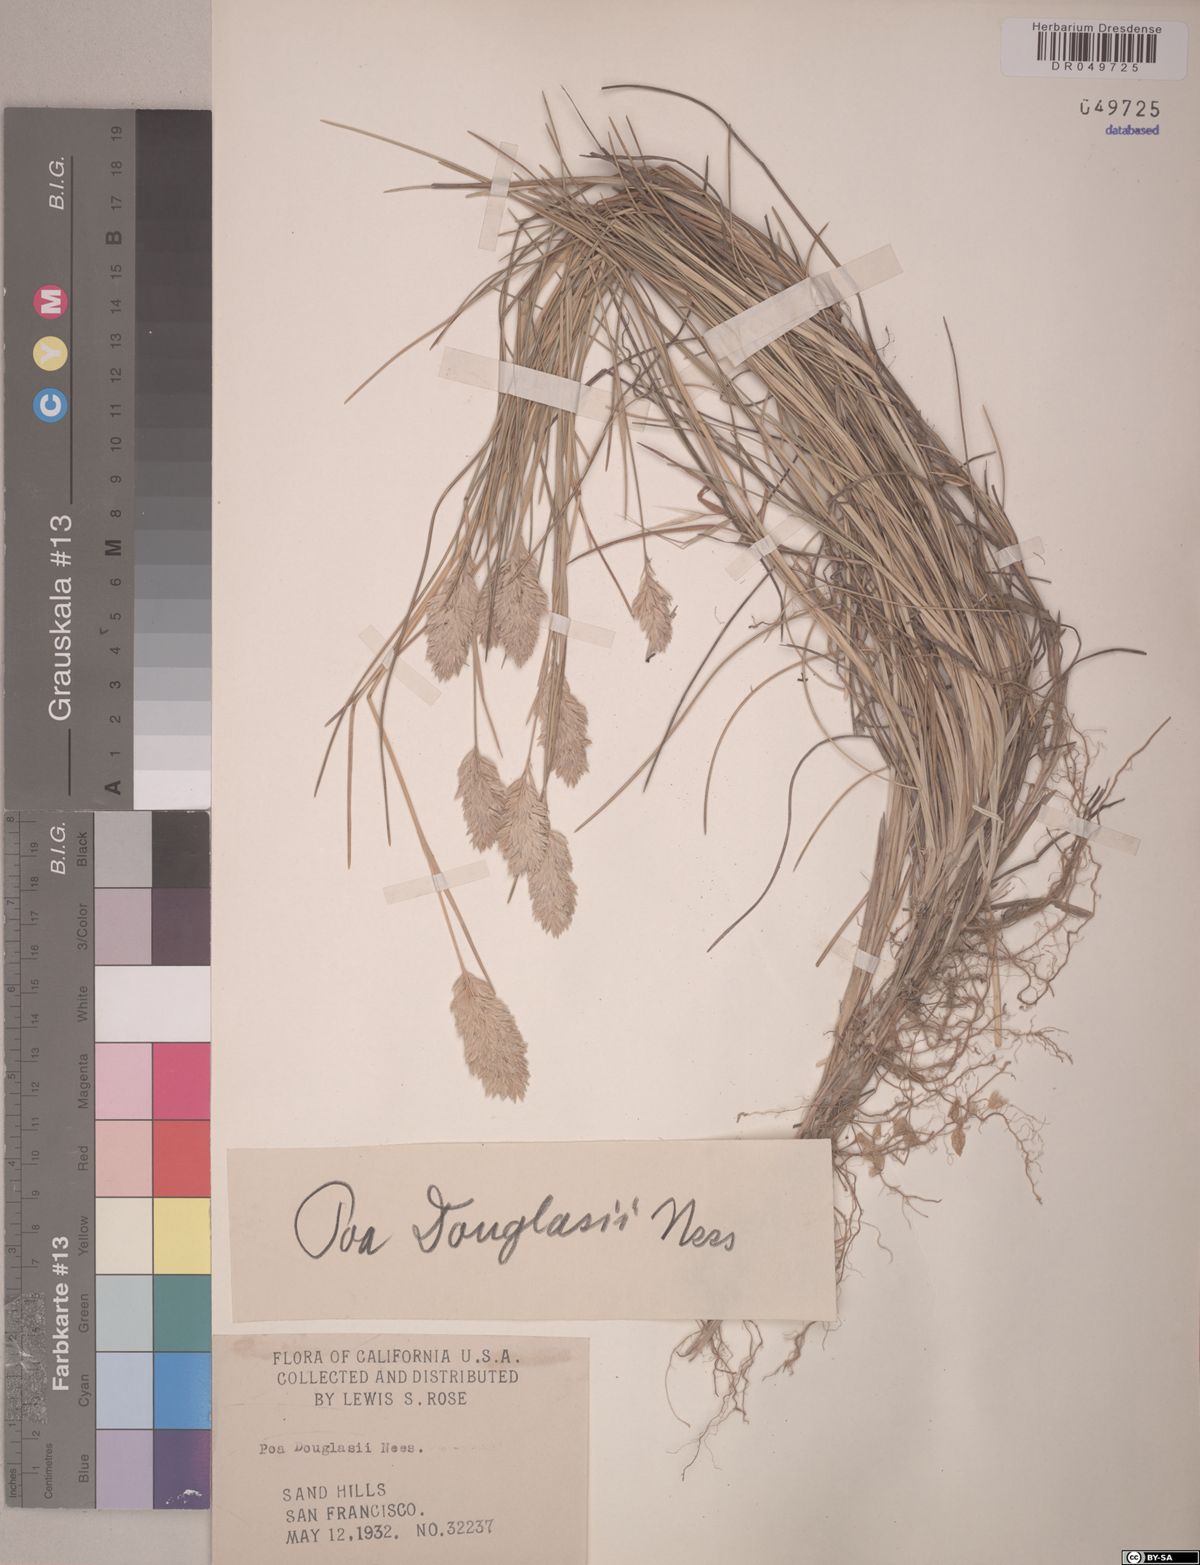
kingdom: Plantae
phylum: Tracheophyta
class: Liliopsida
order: Poales
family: Poaceae
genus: Poa
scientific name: Poa douglasii
